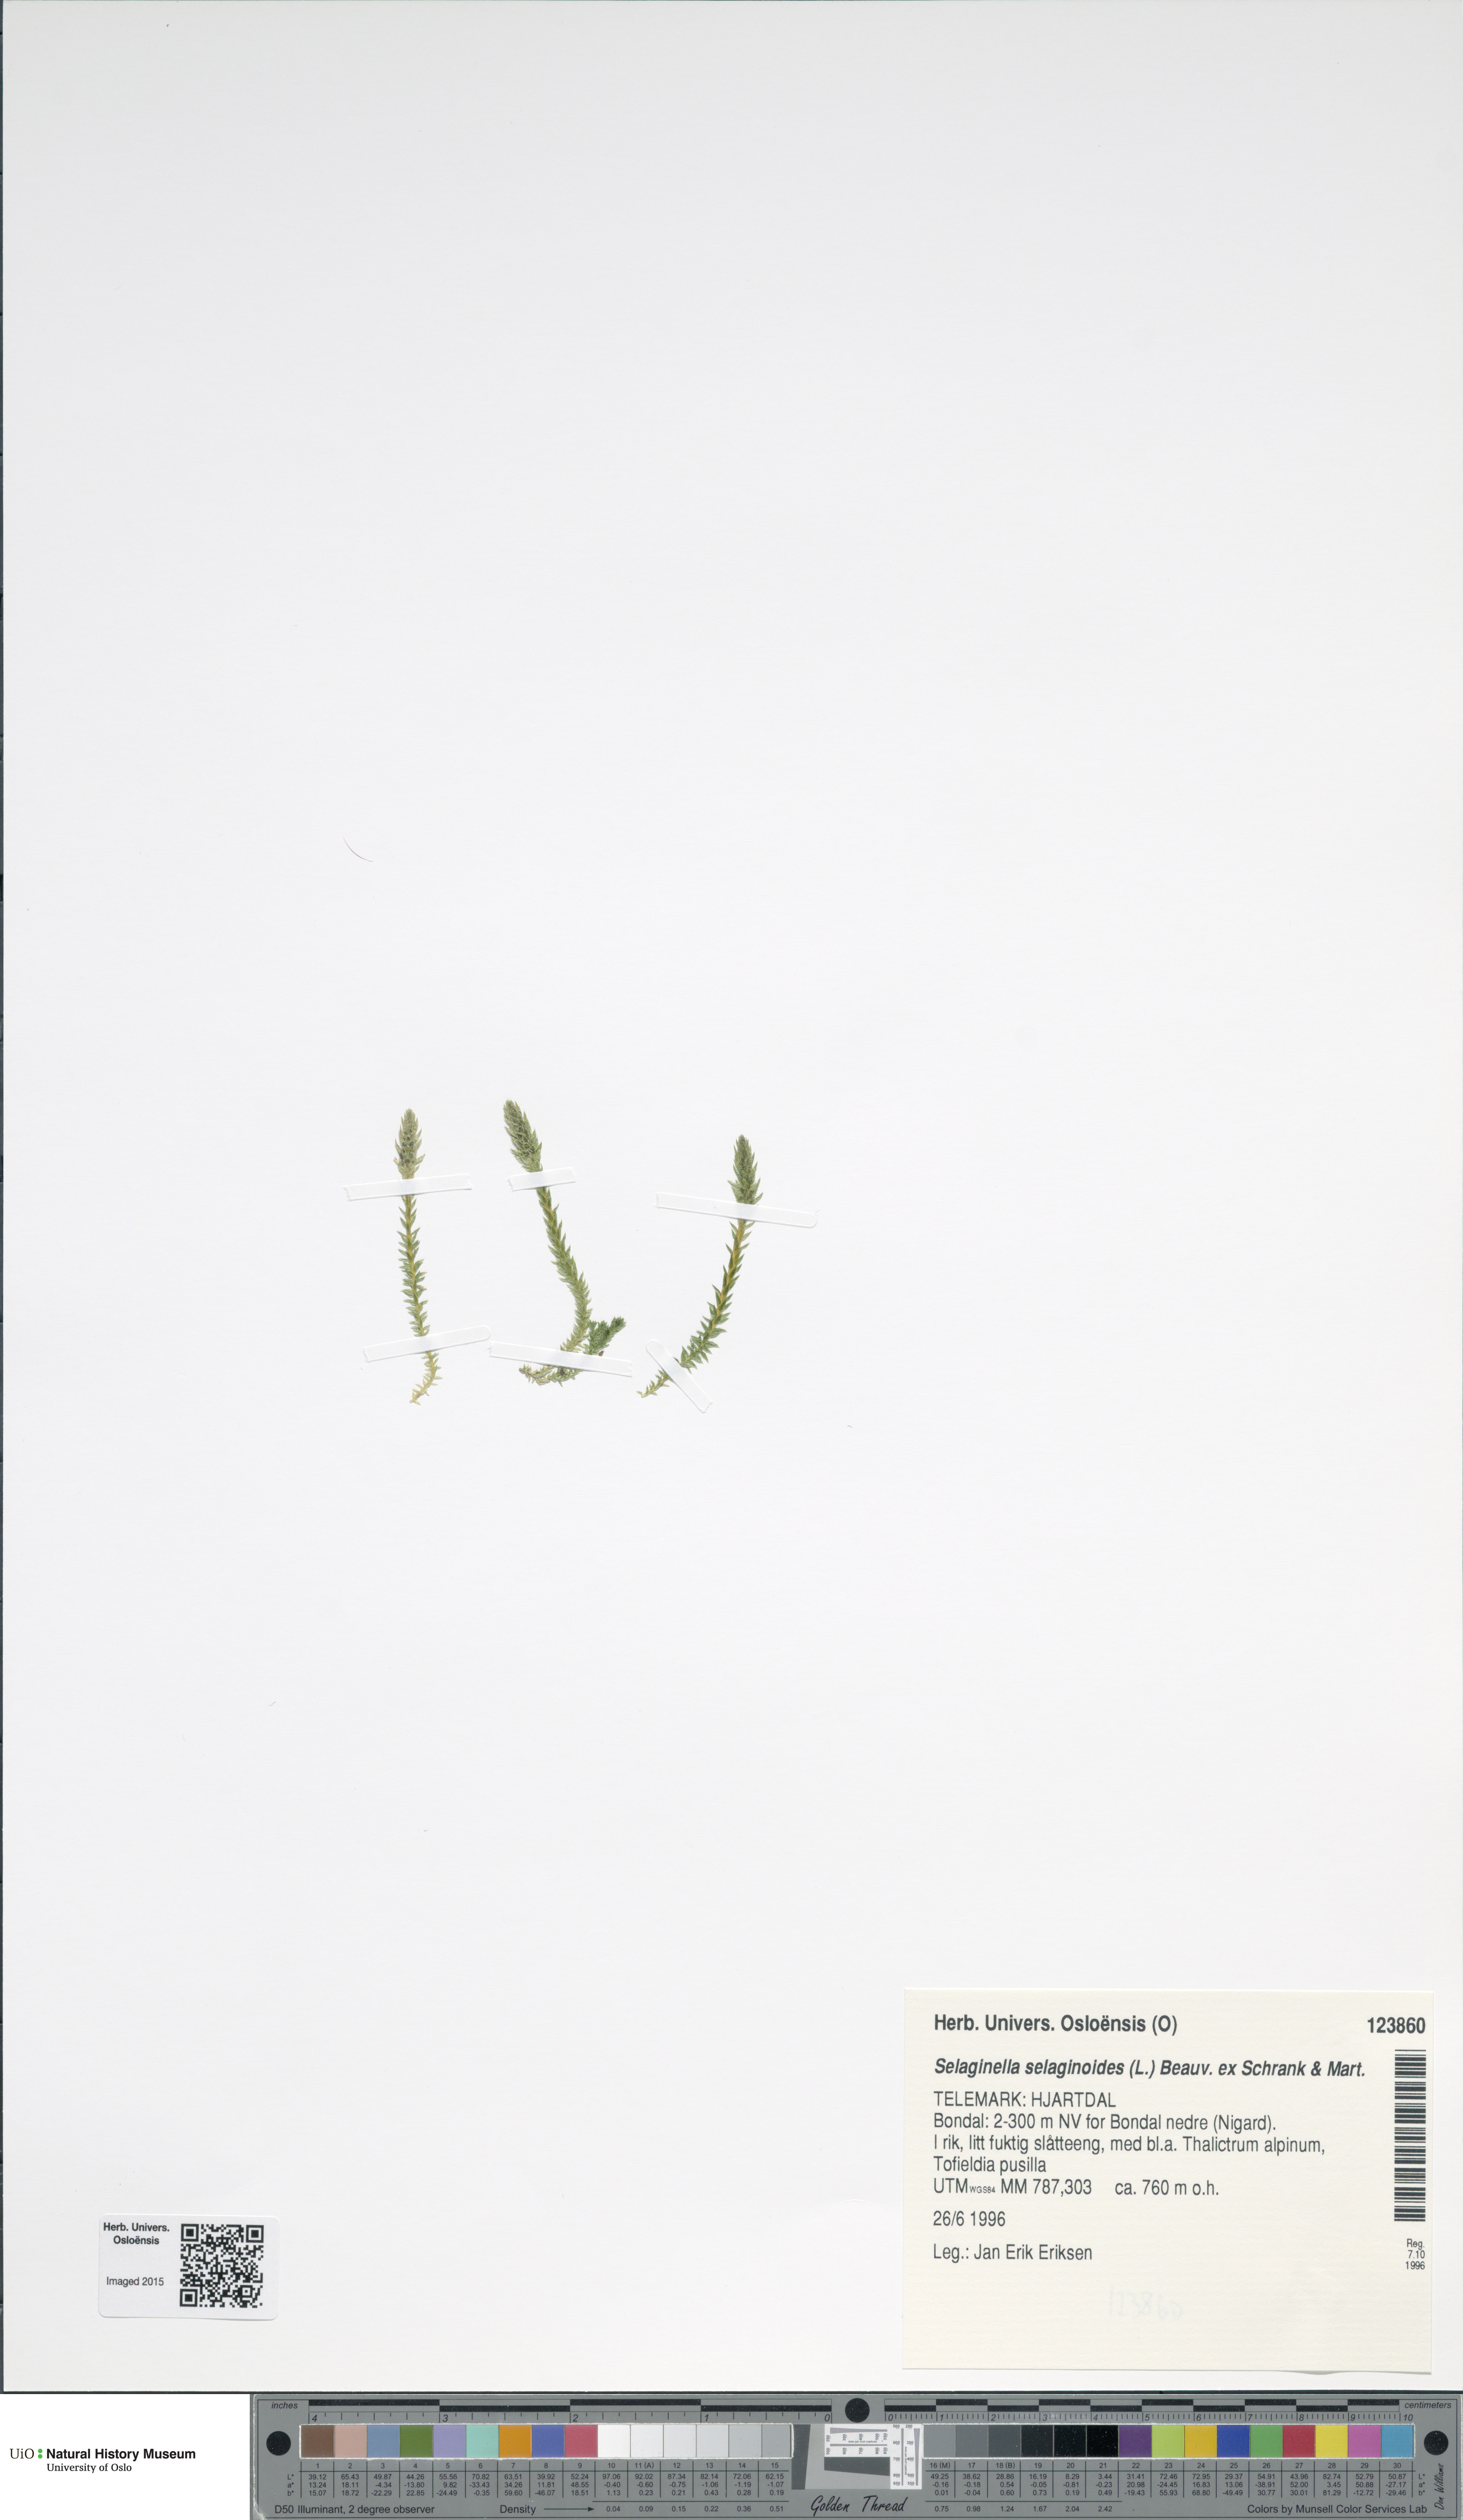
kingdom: Plantae
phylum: Tracheophyta
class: Lycopodiopsida
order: Selaginellales
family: Selaginellaceae
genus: Selaginella
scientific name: Selaginella selaginoides
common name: Prickly mountain-moss
